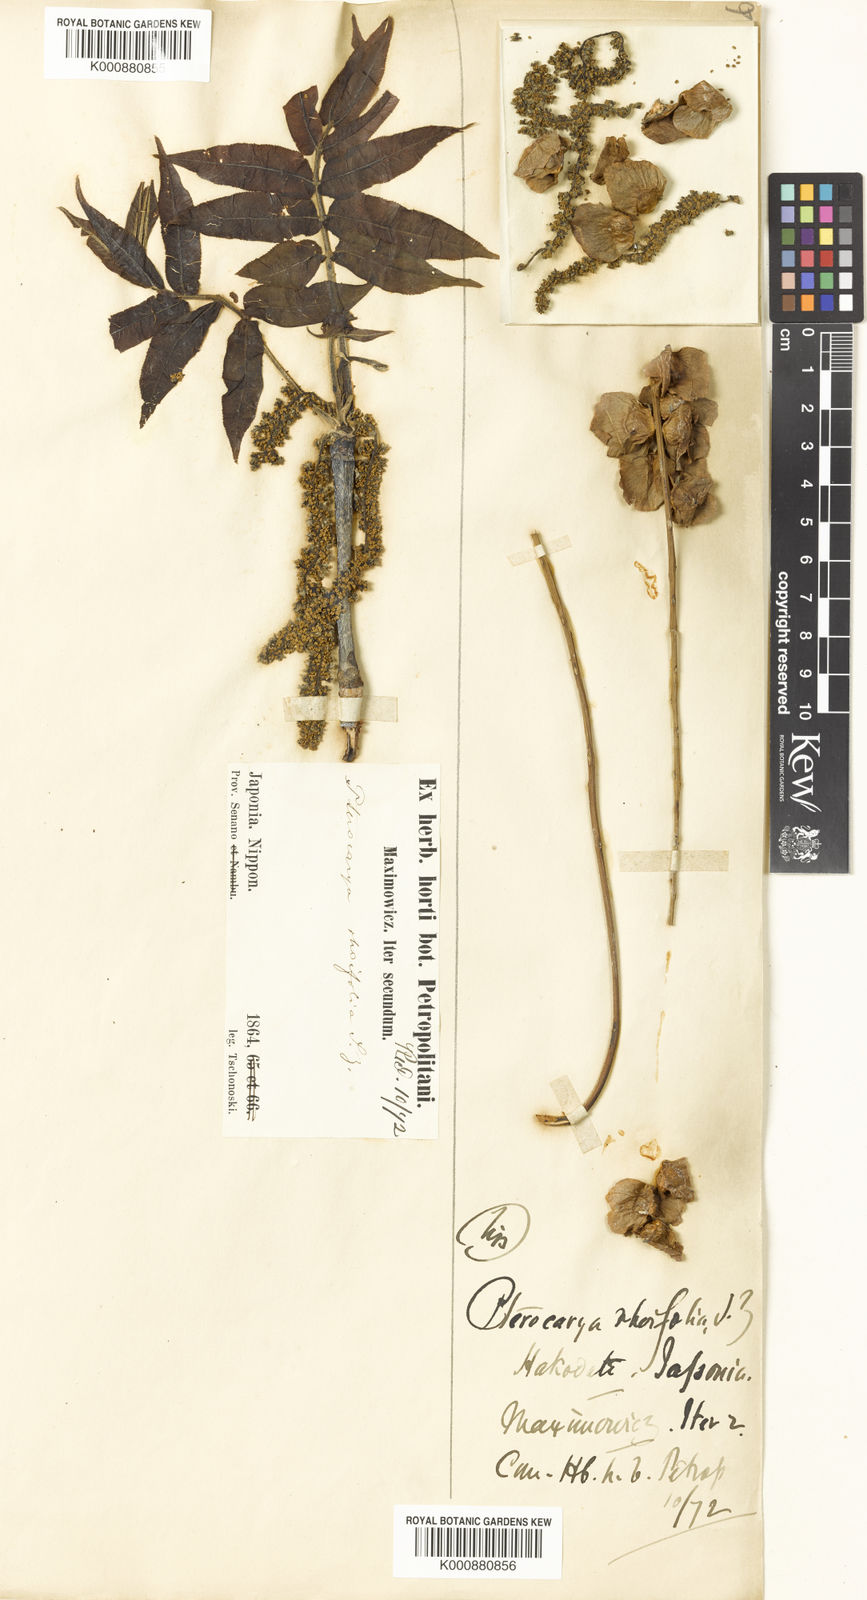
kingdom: Plantae
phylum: Tracheophyta
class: Magnoliopsida
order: Fagales
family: Juglandaceae
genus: Pterocarya
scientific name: Pterocarya rhoifolia
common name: Japanese wingnut
